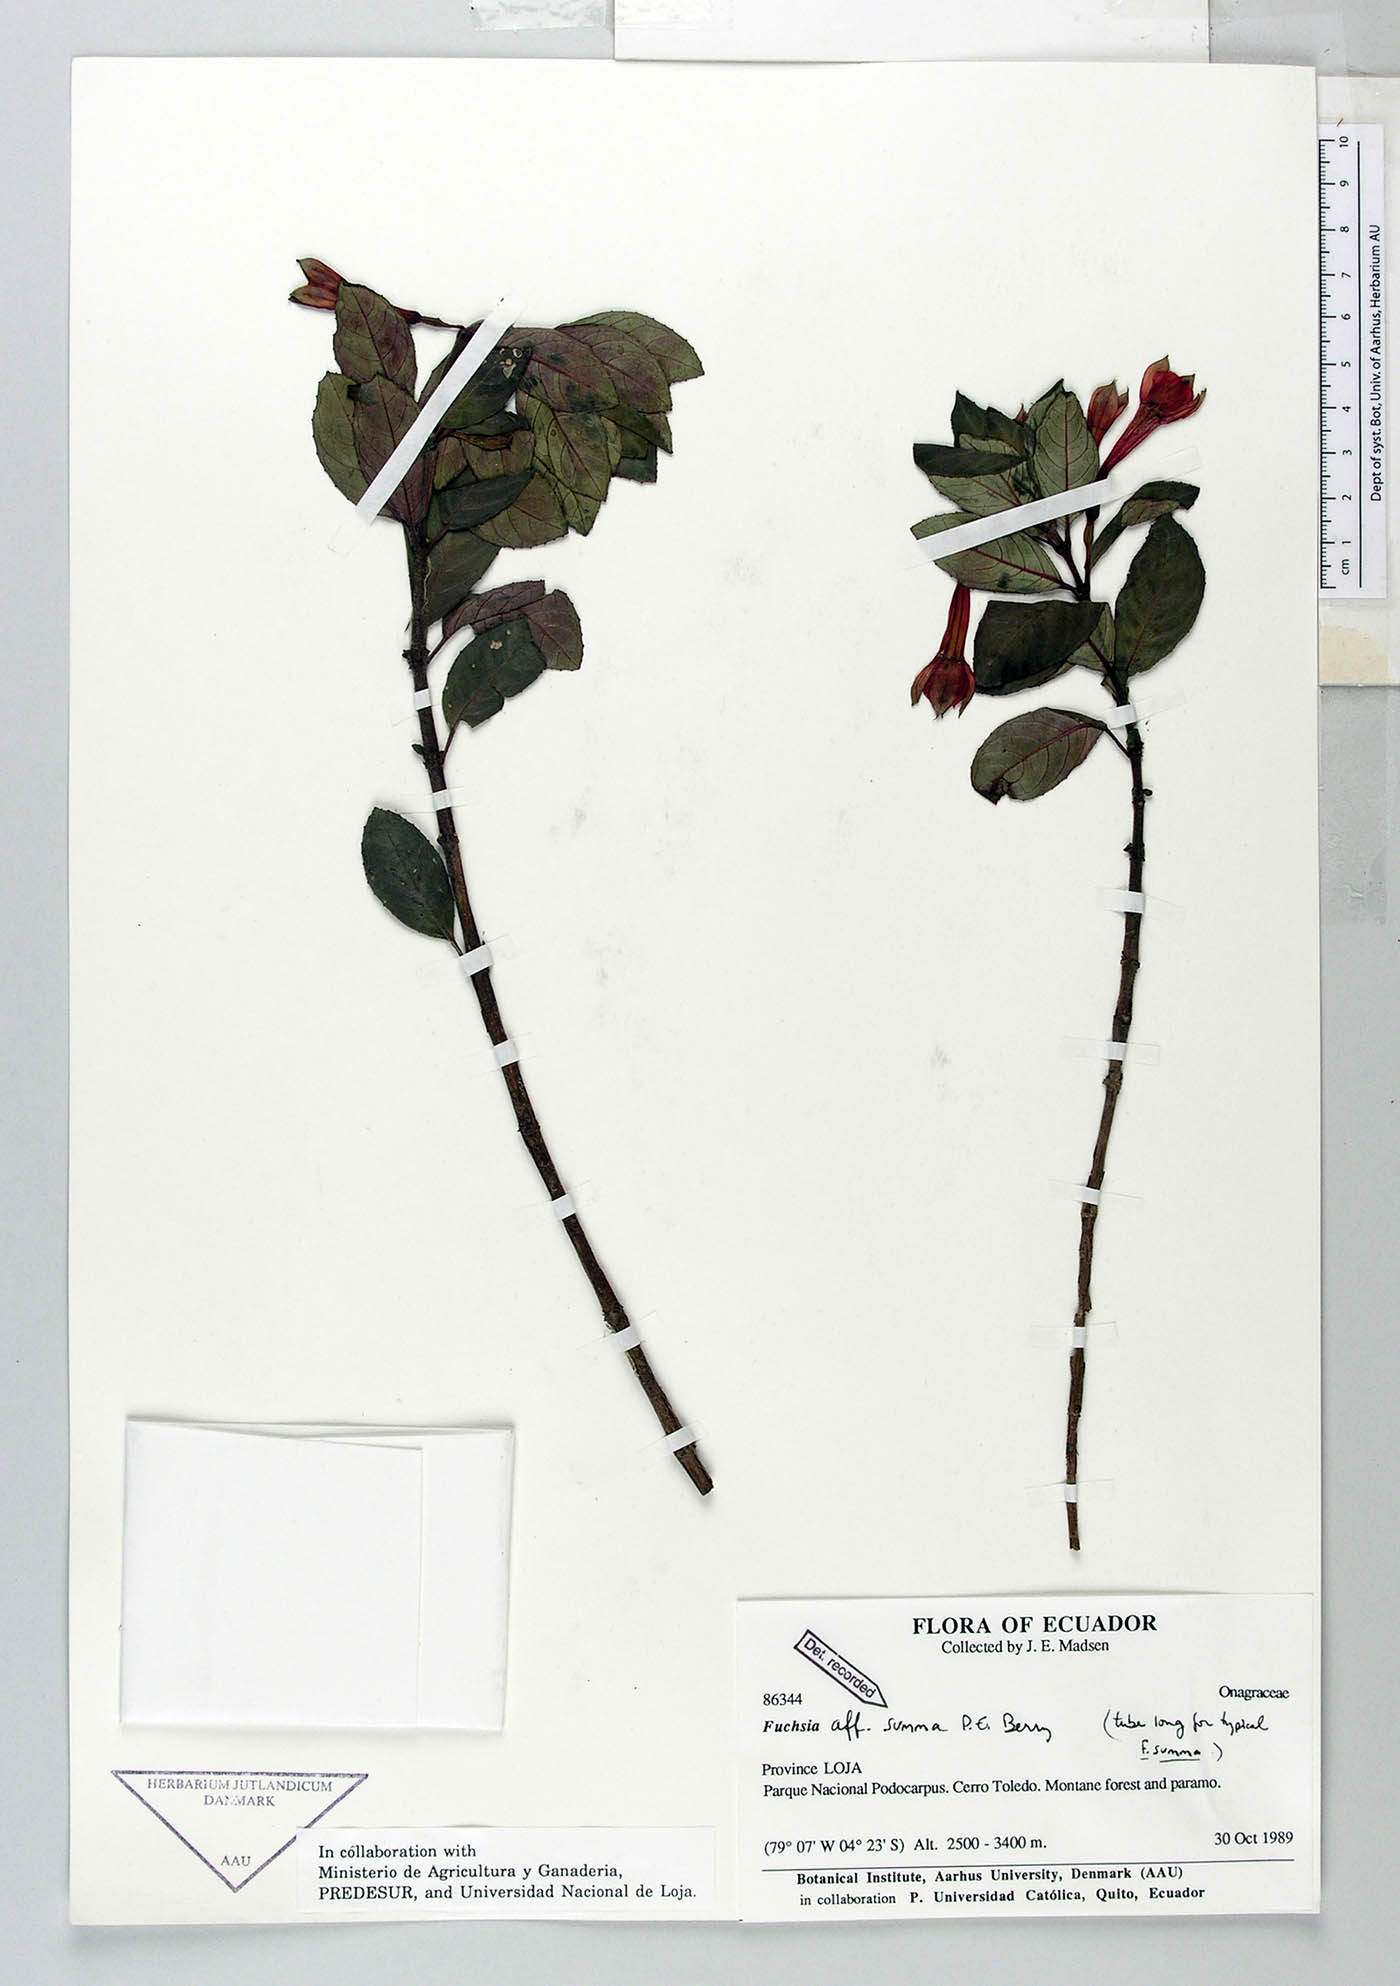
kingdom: Plantae
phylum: Tracheophyta
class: Magnoliopsida
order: Myrtales
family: Onagraceae
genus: Fuchsia
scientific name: Fuchsia summa
